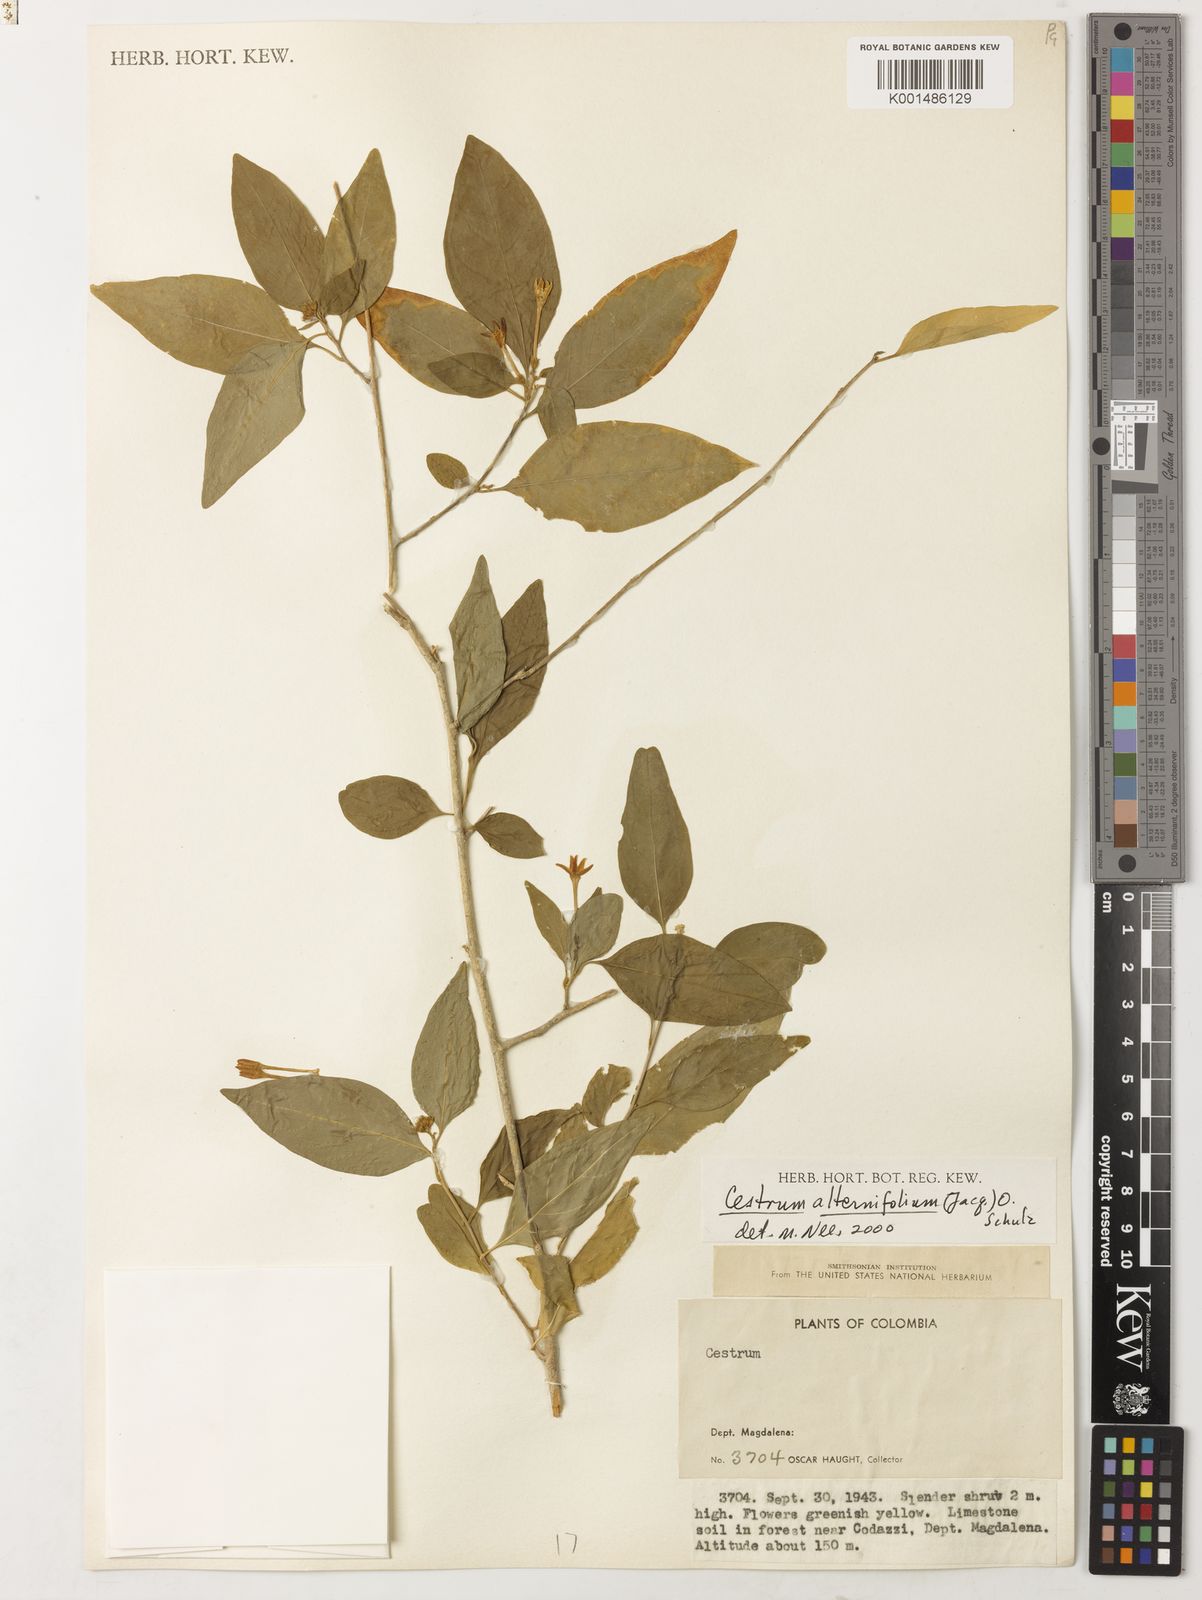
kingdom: Plantae
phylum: Tracheophyta
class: Magnoliopsida
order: Solanales
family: Solanaceae
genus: Cestrum
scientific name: Cestrum alternifolium
